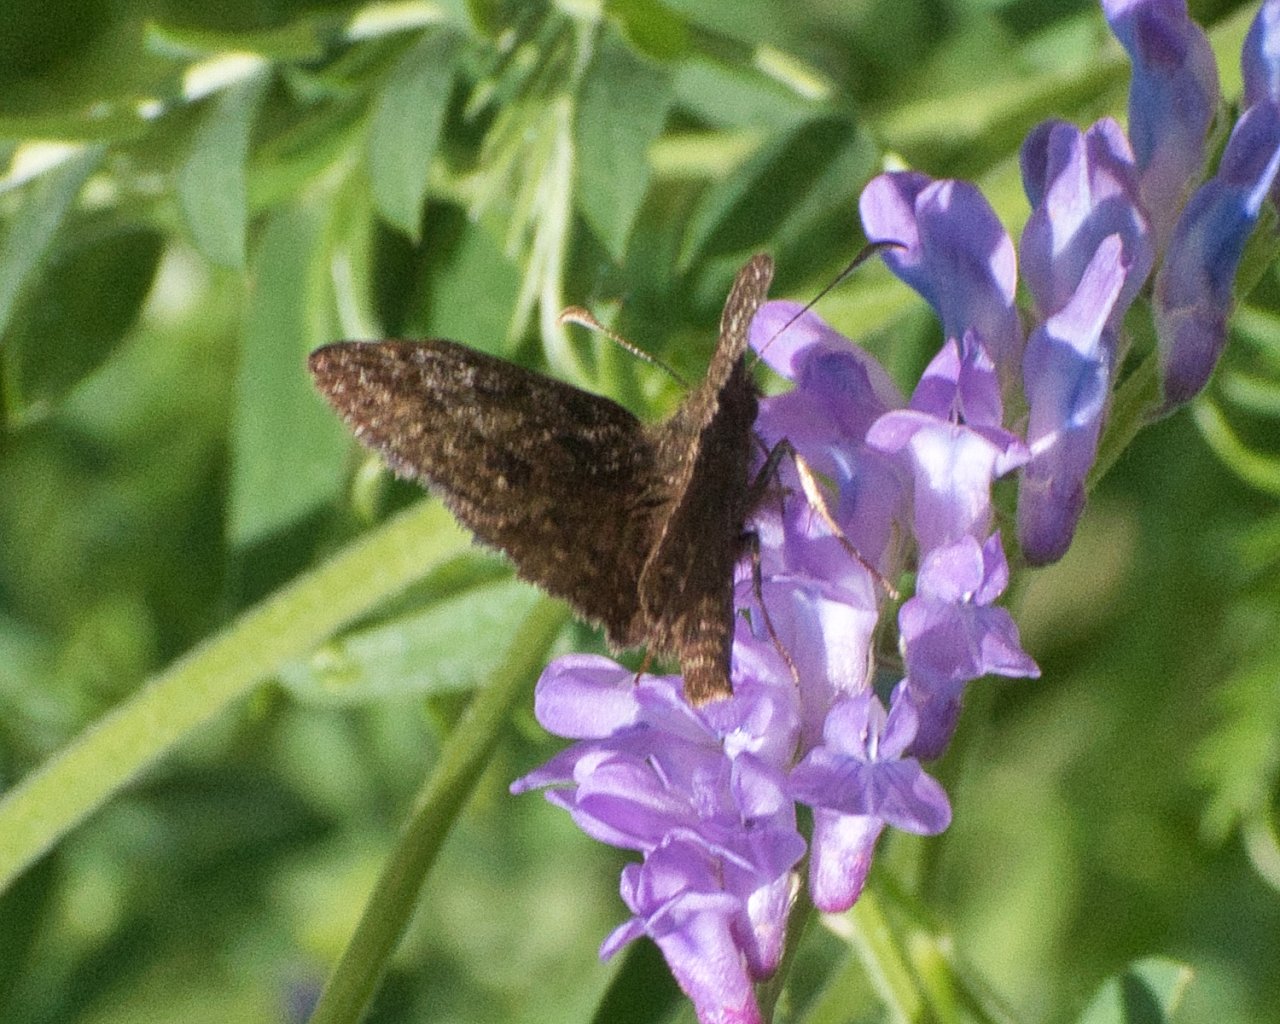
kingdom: Animalia
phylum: Arthropoda
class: Insecta
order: Lepidoptera
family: Hesperiidae
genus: Erynnis
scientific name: Erynnis pacuvius
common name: Pacuvius Duskywing
